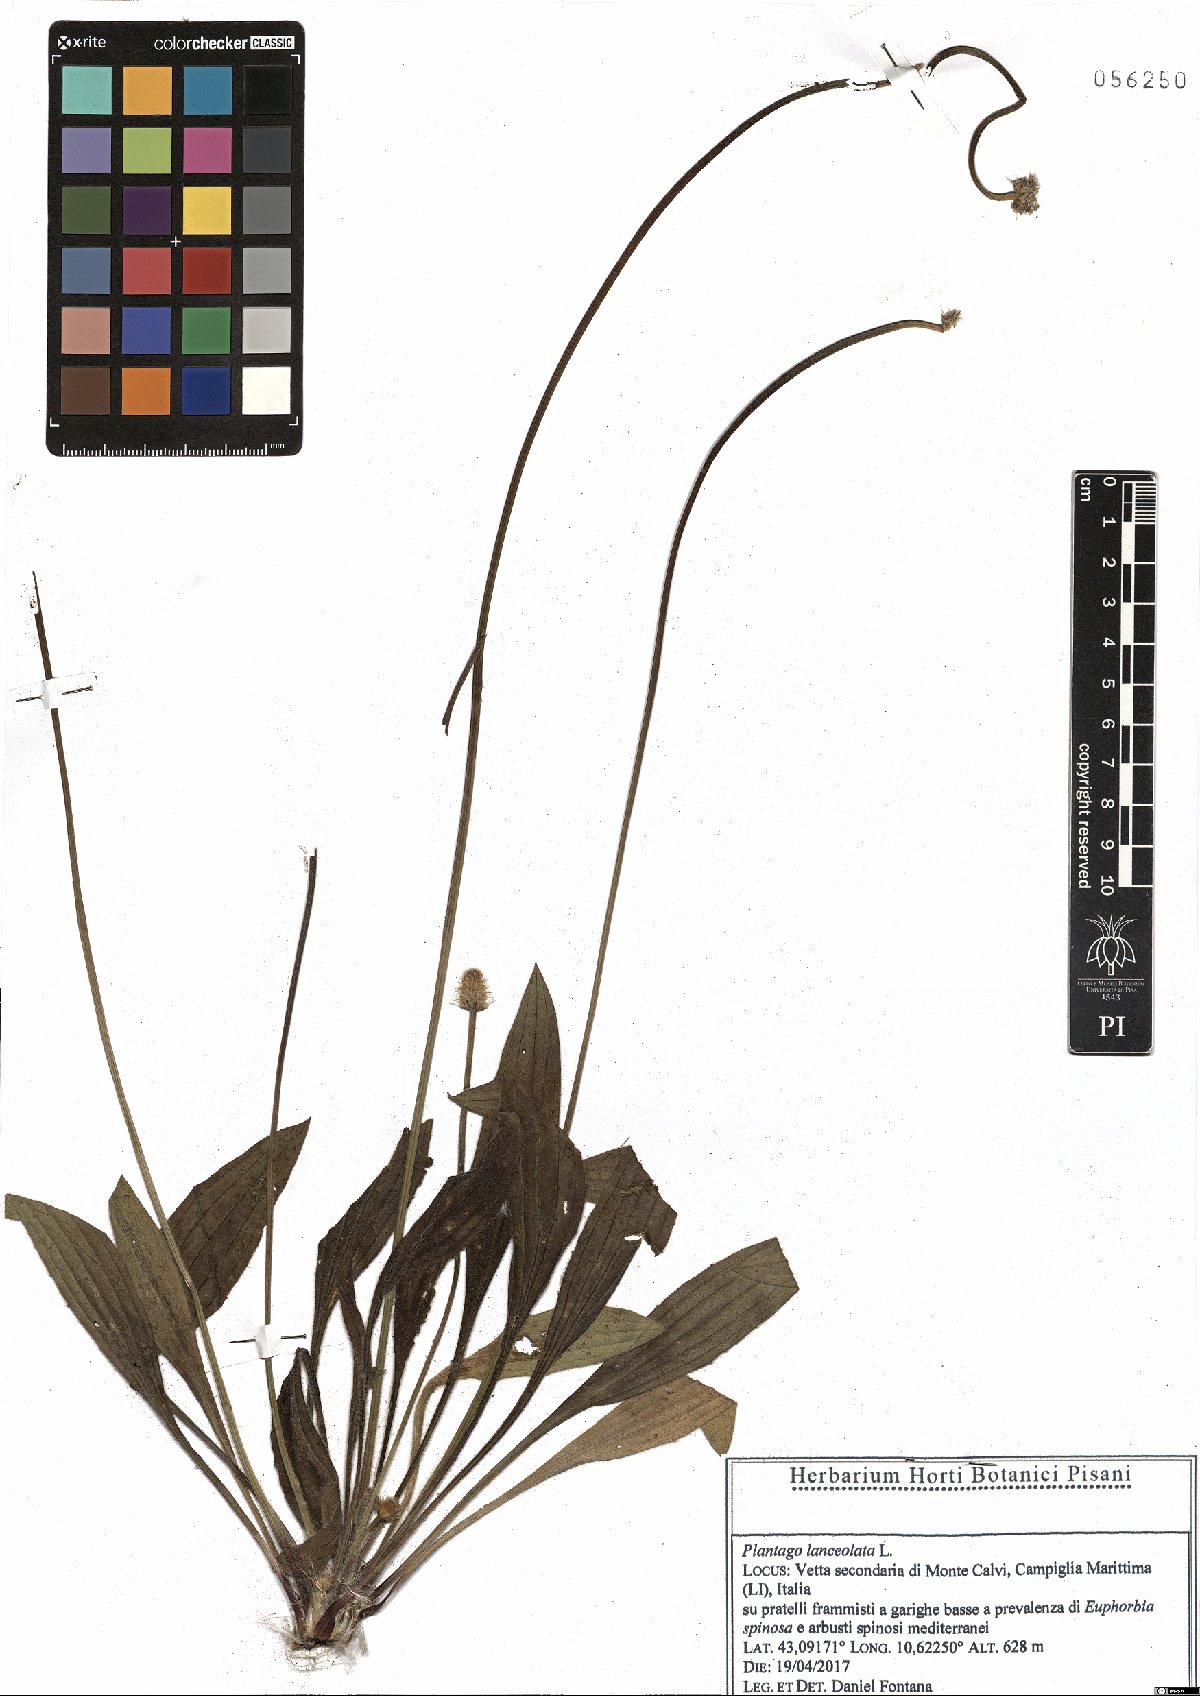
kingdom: Plantae
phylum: Tracheophyta
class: Magnoliopsida
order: Lamiales
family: Plantaginaceae
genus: Plantago
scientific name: Plantago lanceolata
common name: Ribwort plantain
